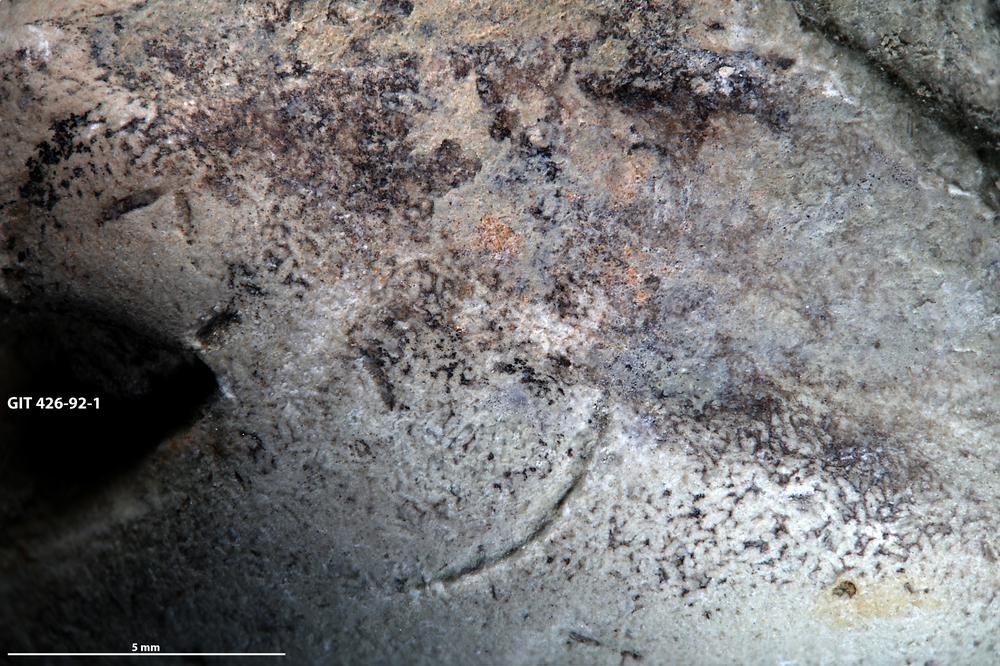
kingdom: Animalia
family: Coprulidae
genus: Coprulus
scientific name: Coprulus
